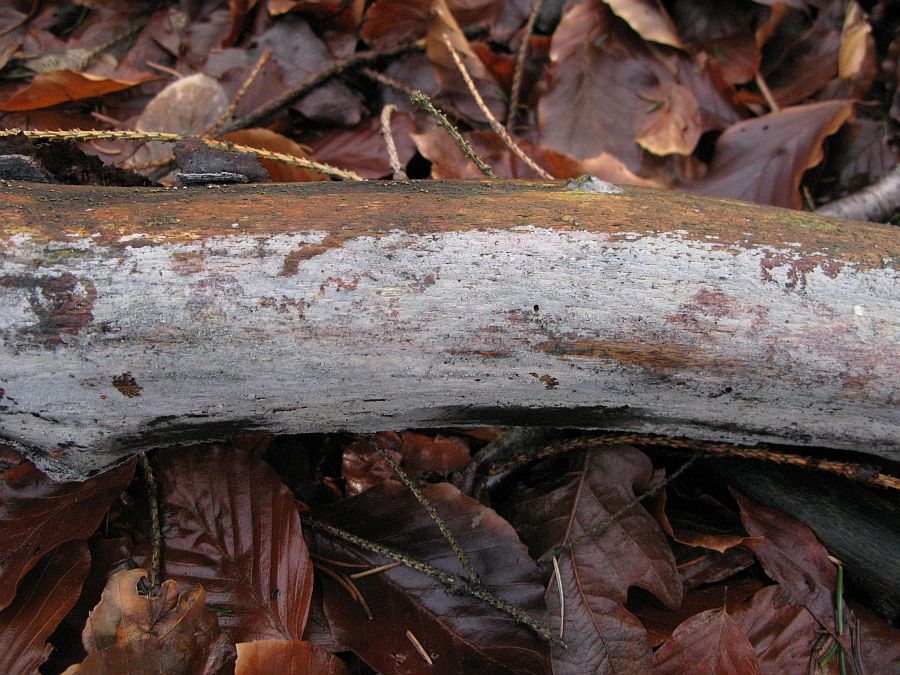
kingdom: Fungi
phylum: Basidiomycota
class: Agaricomycetes
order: Cantharellales
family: Hydnaceae
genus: Sistotrema
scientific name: Sistotrema brinkmannii
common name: bønnesporet kroneskorpe
